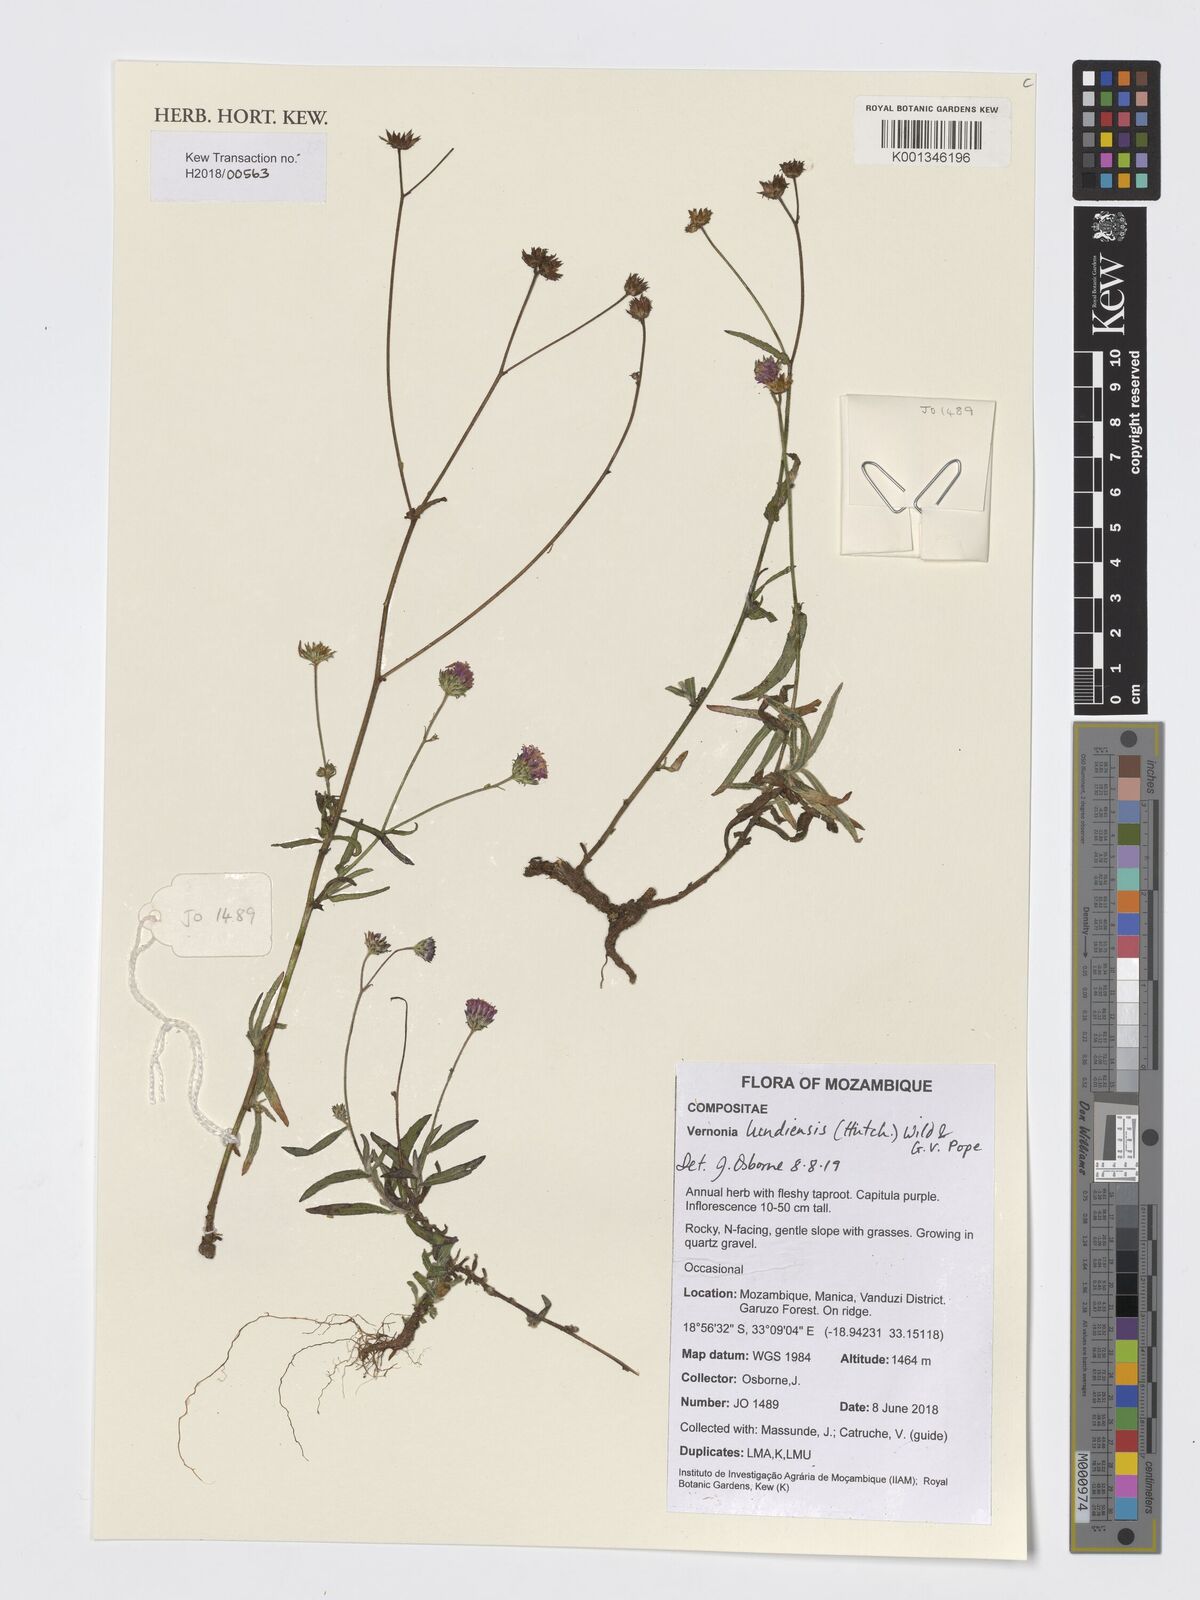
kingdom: Plantae
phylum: Tracheophyta
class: Magnoliopsida
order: Asterales
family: Asteraceae
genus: Vernonia
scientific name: Vernonia lundiensis
